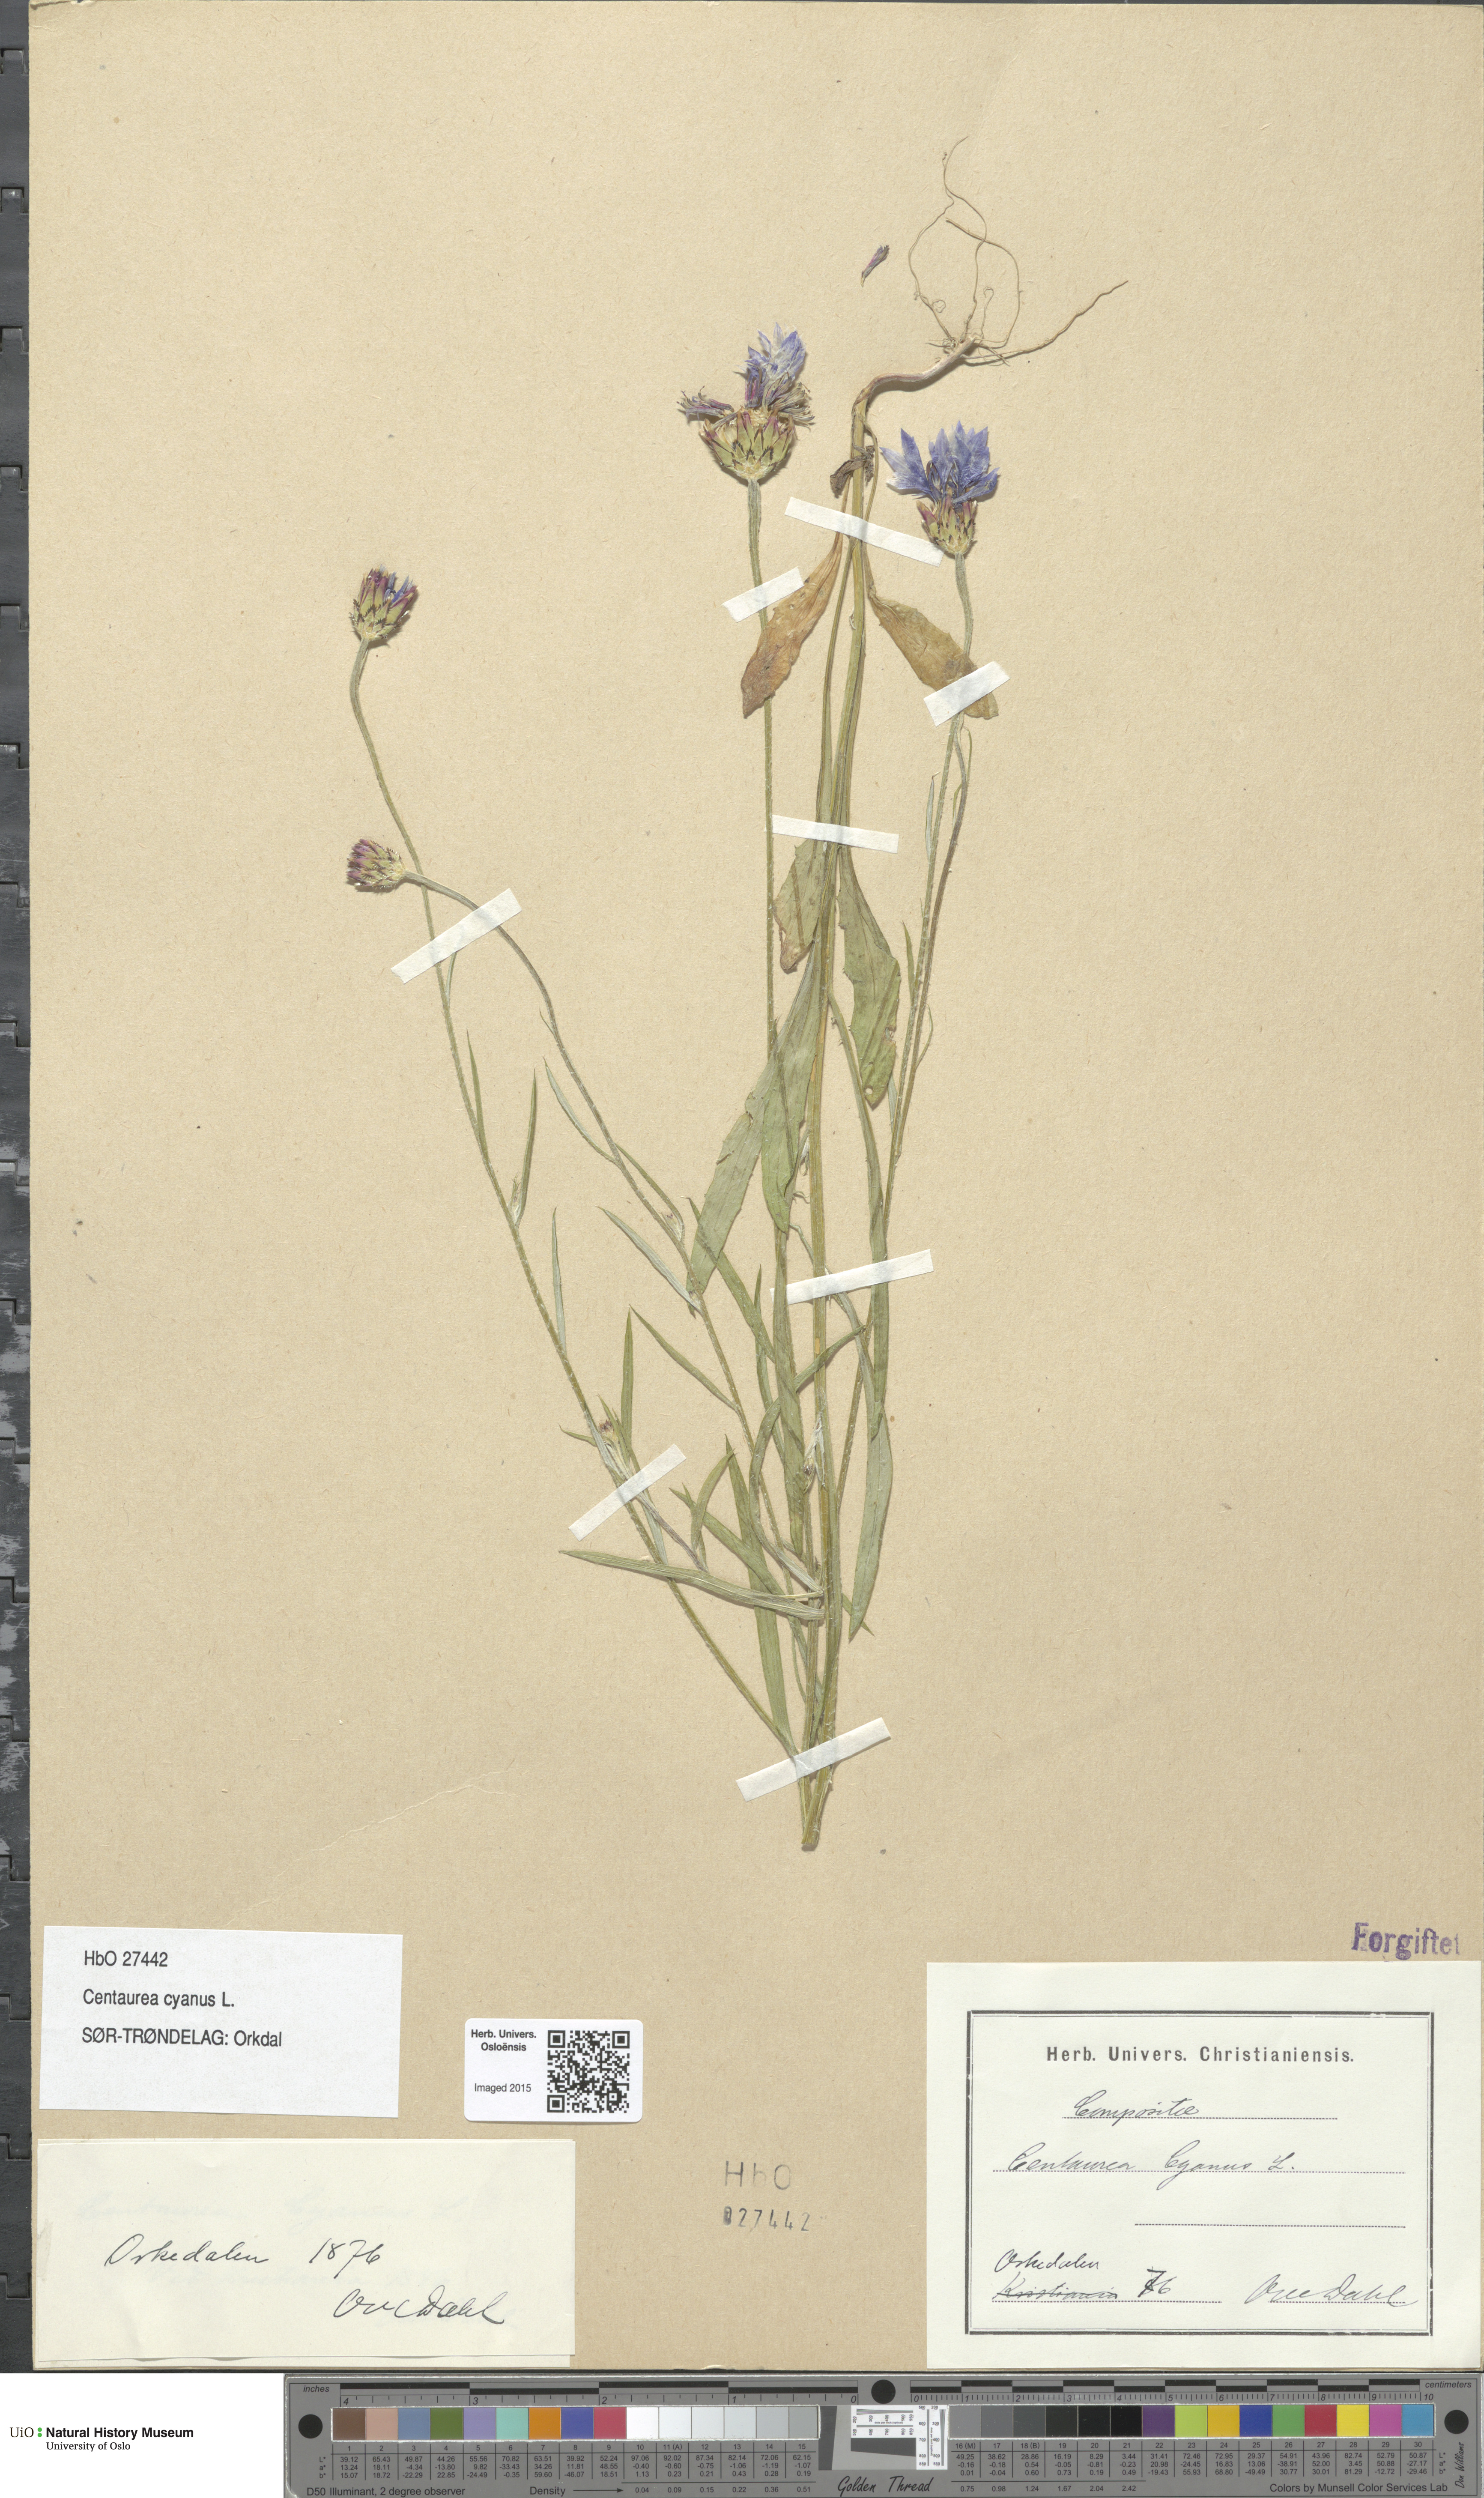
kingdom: Plantae
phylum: Tracheophyta
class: Magnoliopsida
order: Asterales
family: Asteraceae
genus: Centaurea
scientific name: Centaurea cyanus
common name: Cornflower
